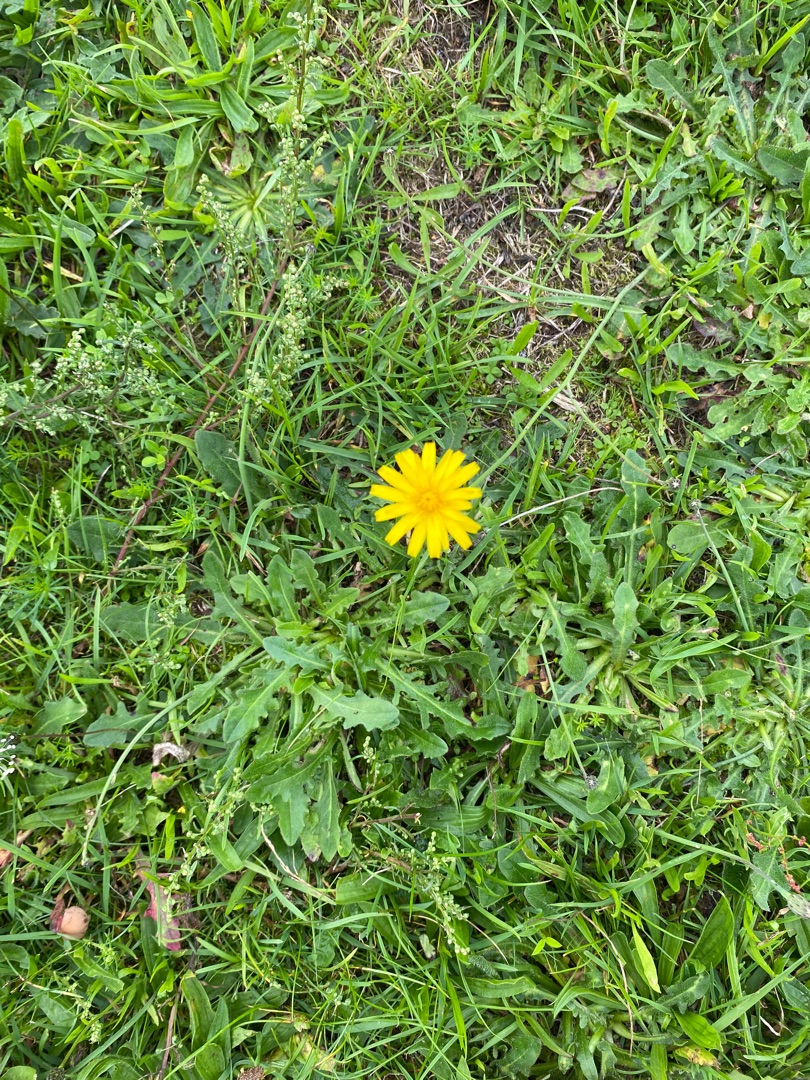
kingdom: Plantae
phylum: Tracheophyta
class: Magnoliopsida
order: Asterales
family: Asteraceae
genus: Hypochaeris
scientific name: Hypochaeris radicata
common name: Almindelig kongepen
